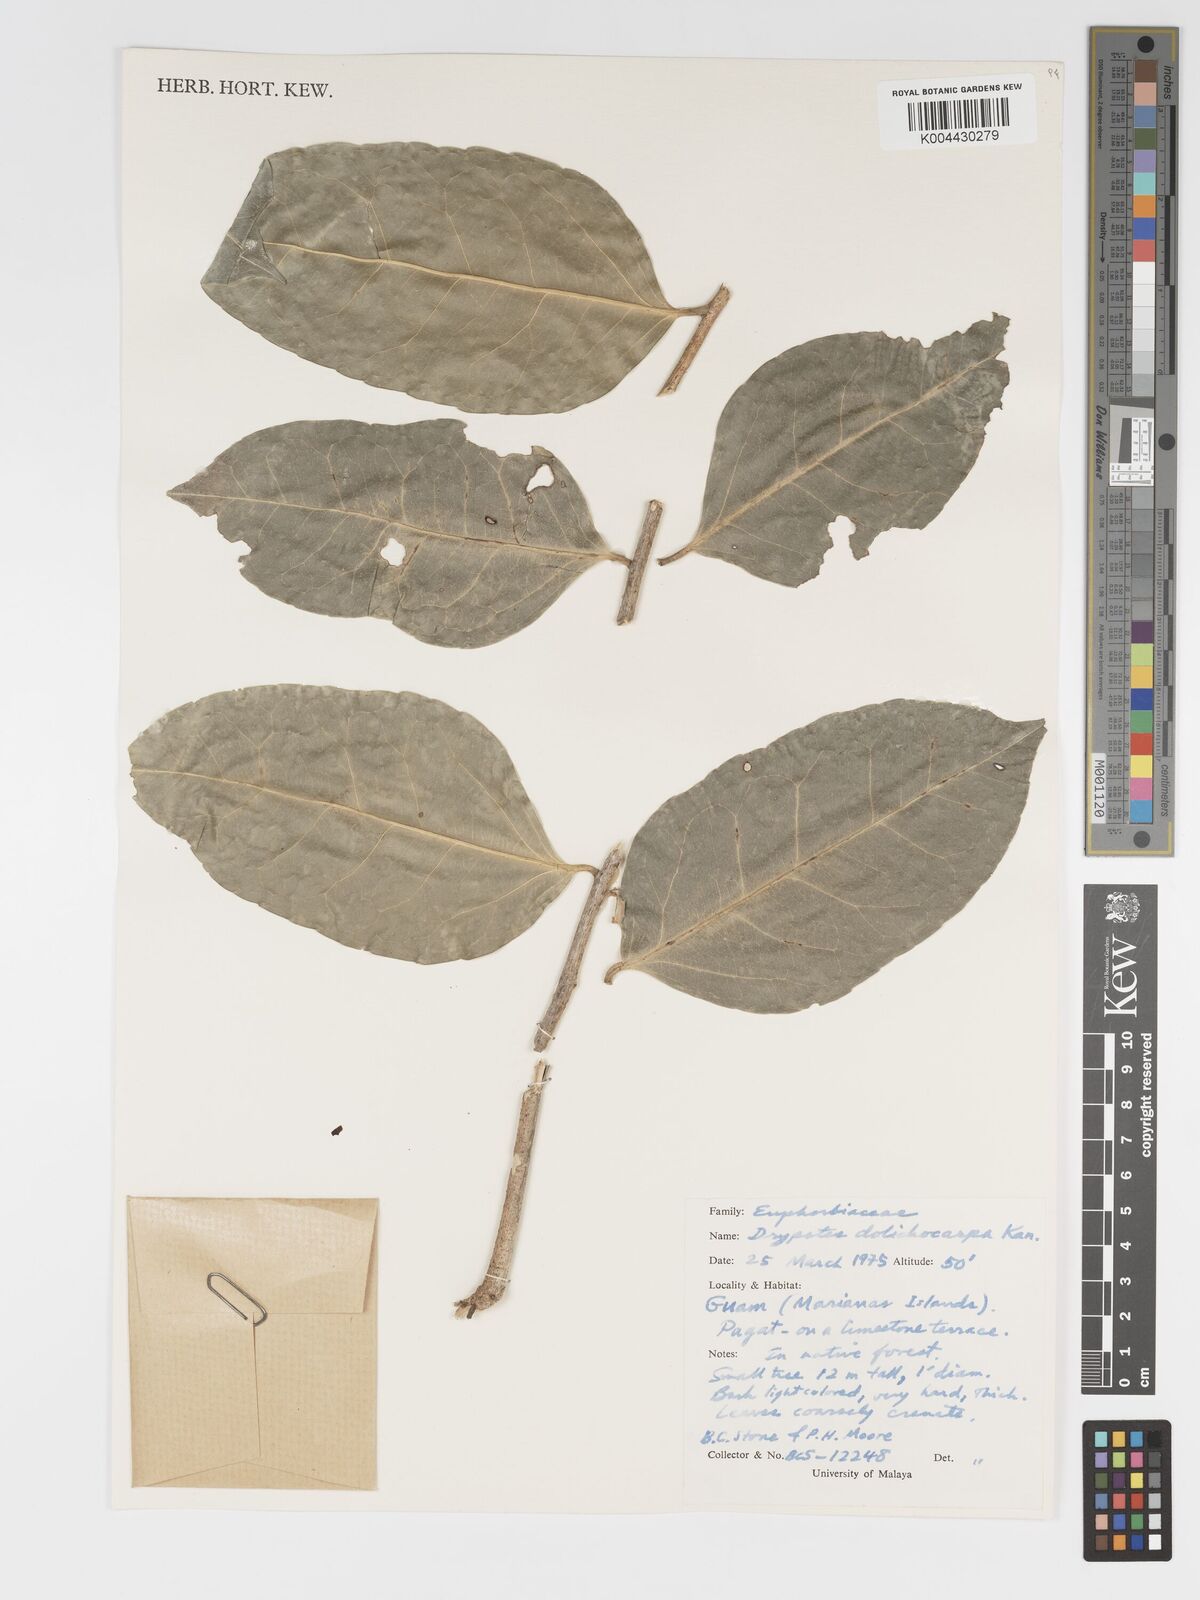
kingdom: Plantae
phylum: Tracheophyta
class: Magnoliopsida
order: Malpighiales
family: Putranjivaceae
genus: Drypetes
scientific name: Drypetes dolichocarpa
